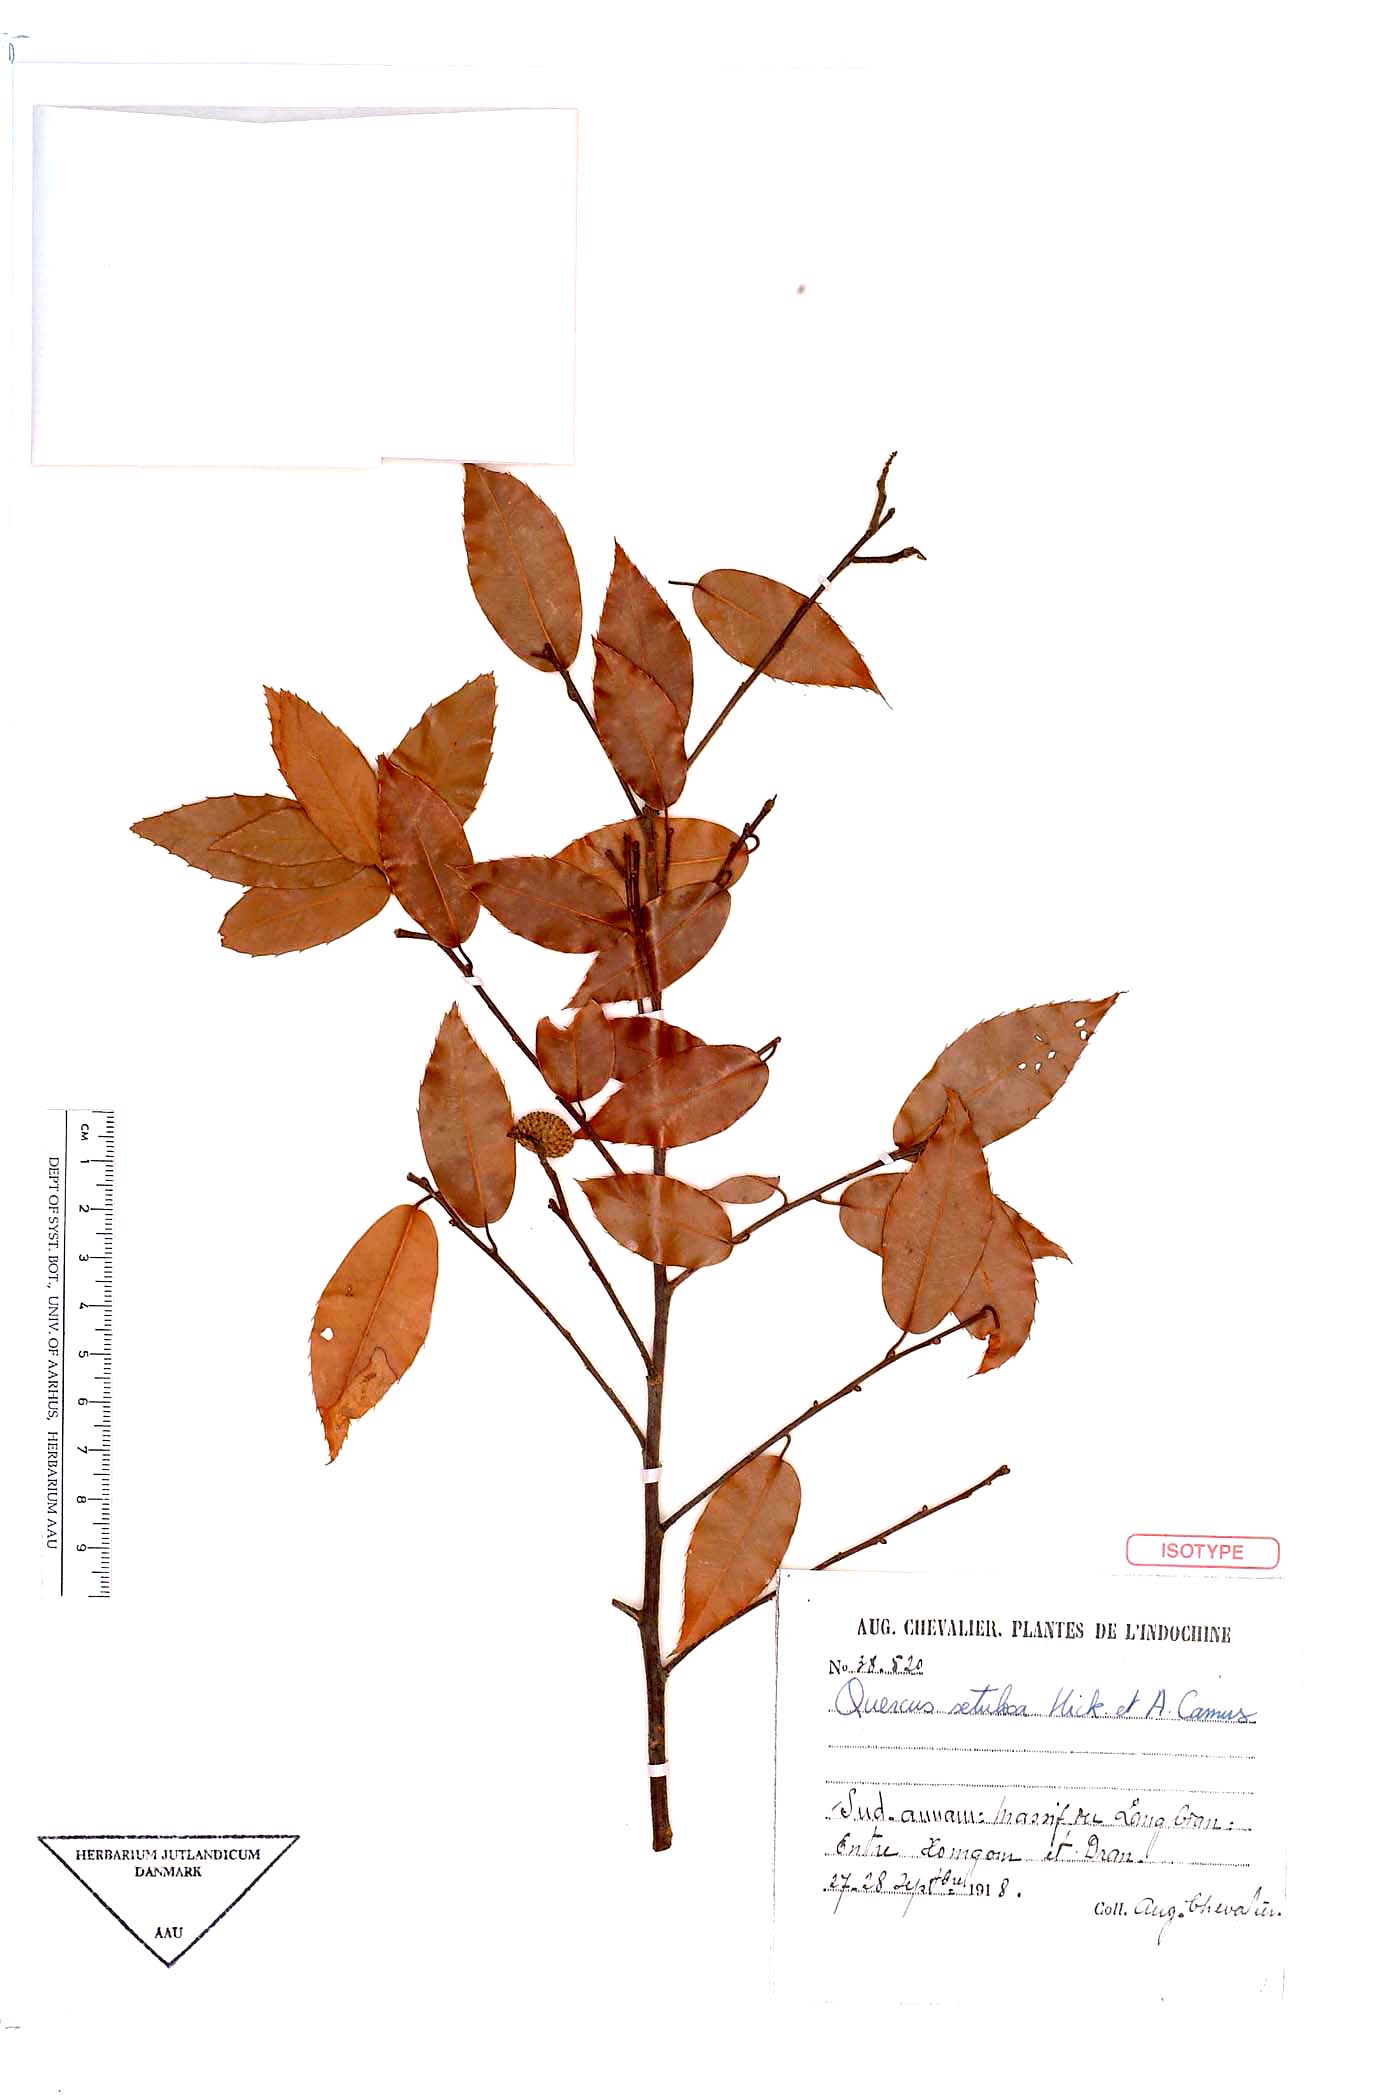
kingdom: Plantae
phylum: Tracheophyta
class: Magnoliopsida
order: Fagales
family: Fagaceae
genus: Quercus
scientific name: Quercus setulosa
